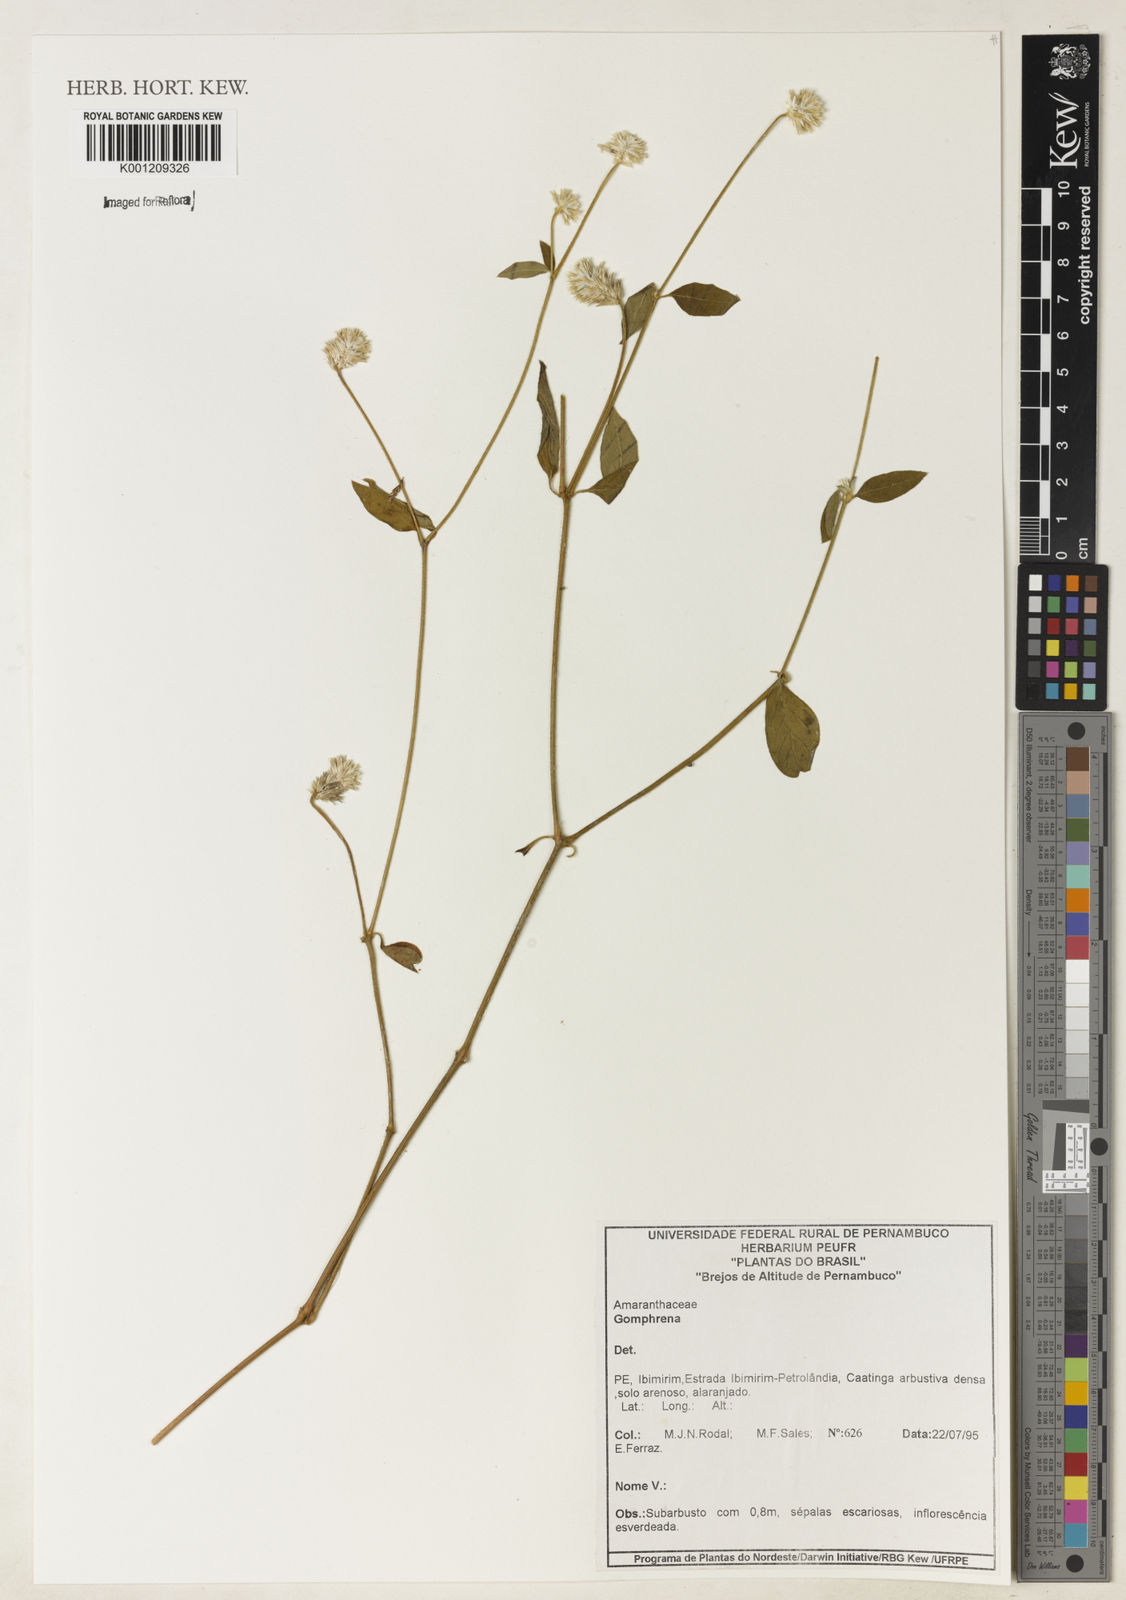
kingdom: Plantae
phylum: Tracheophyta
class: Magnoliopsida
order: Caryophyllales
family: Amaranthaceae
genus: Gomphrena
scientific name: Gomphrena
